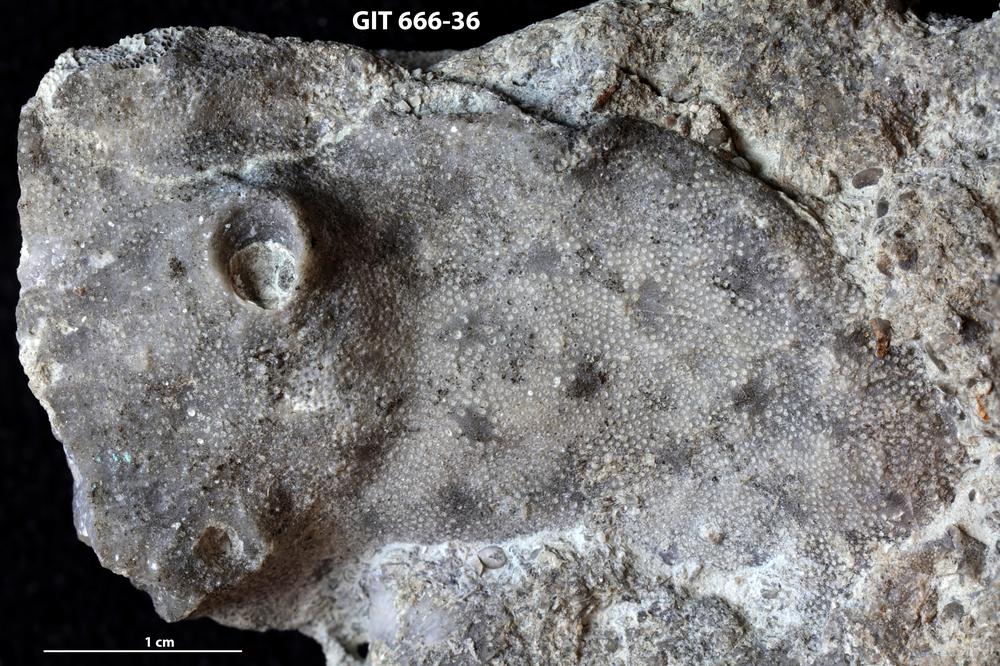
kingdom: Animalia
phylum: Bryozoa
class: Stenolaemata
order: Cystoporida
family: Fistuliporidae
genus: Fistulipora
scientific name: Fistulipora przhidolensis
